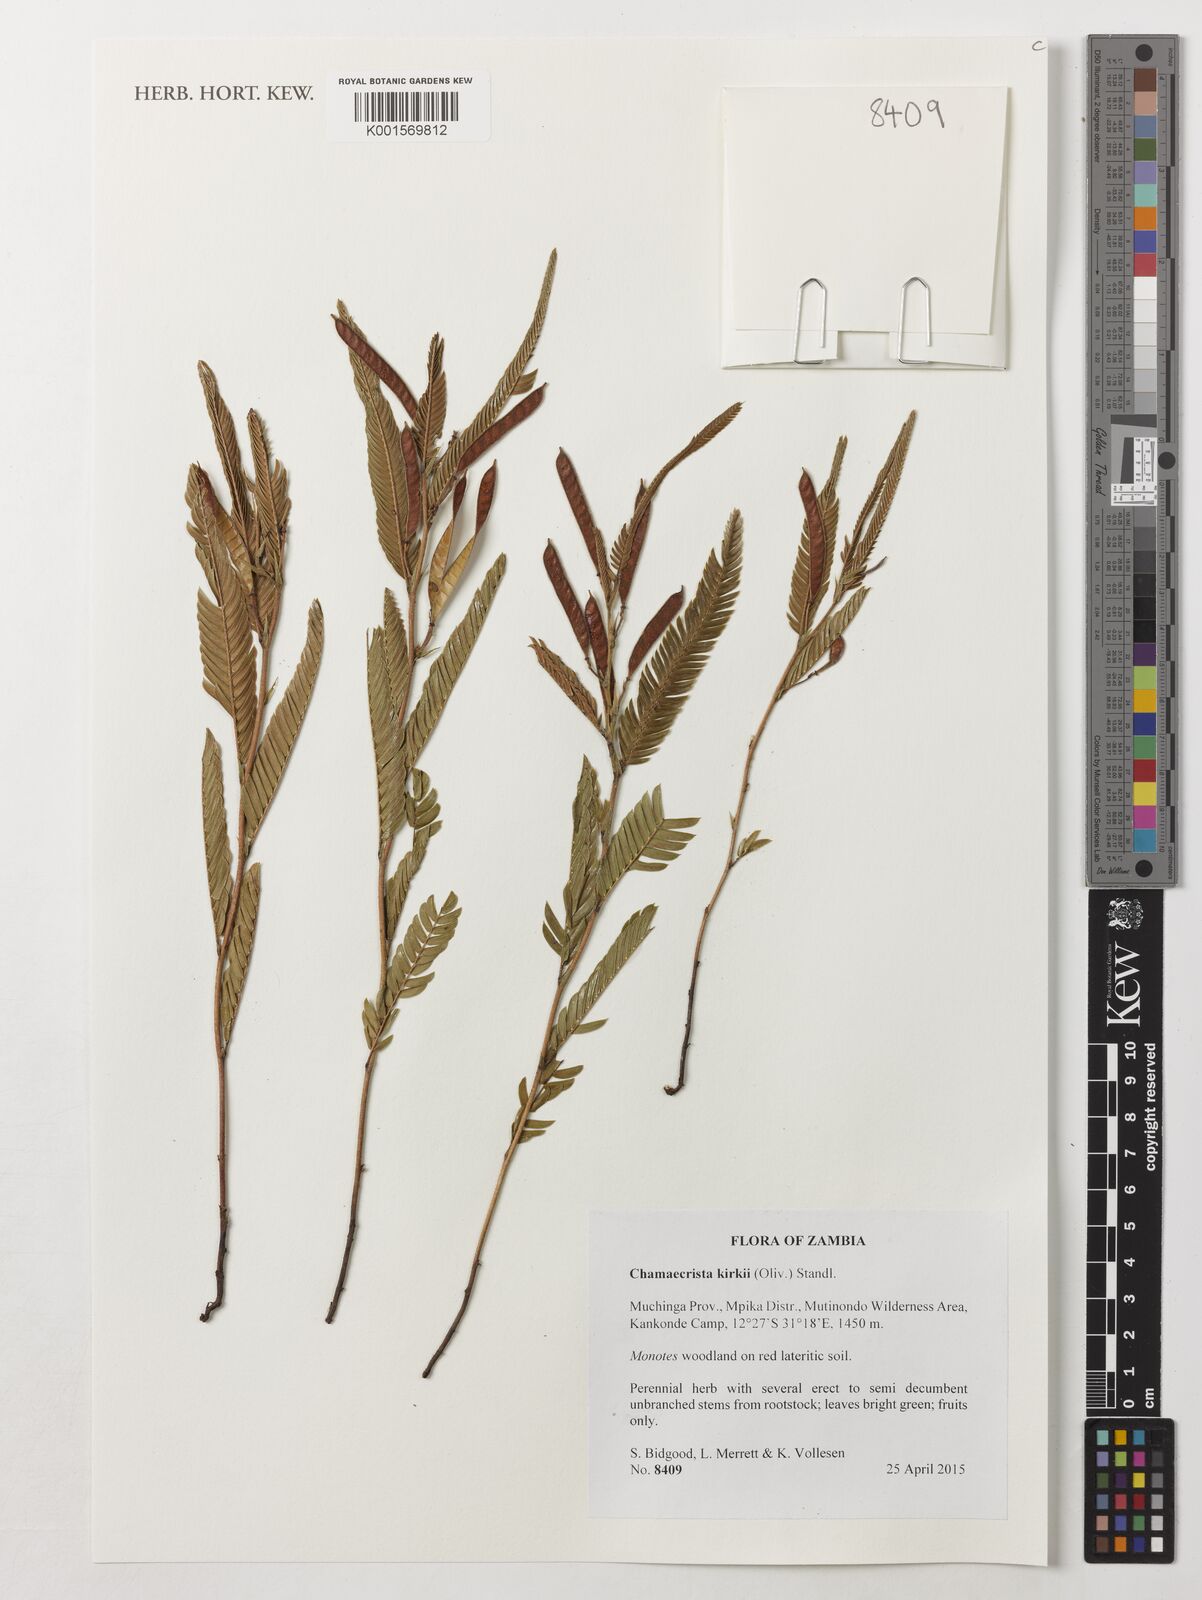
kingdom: Plantae
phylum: Tracheophyta
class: Magnoliopsida
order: Fabales
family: Fabaceae
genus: Chamaecrista
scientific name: Chamaecrista kirkii
